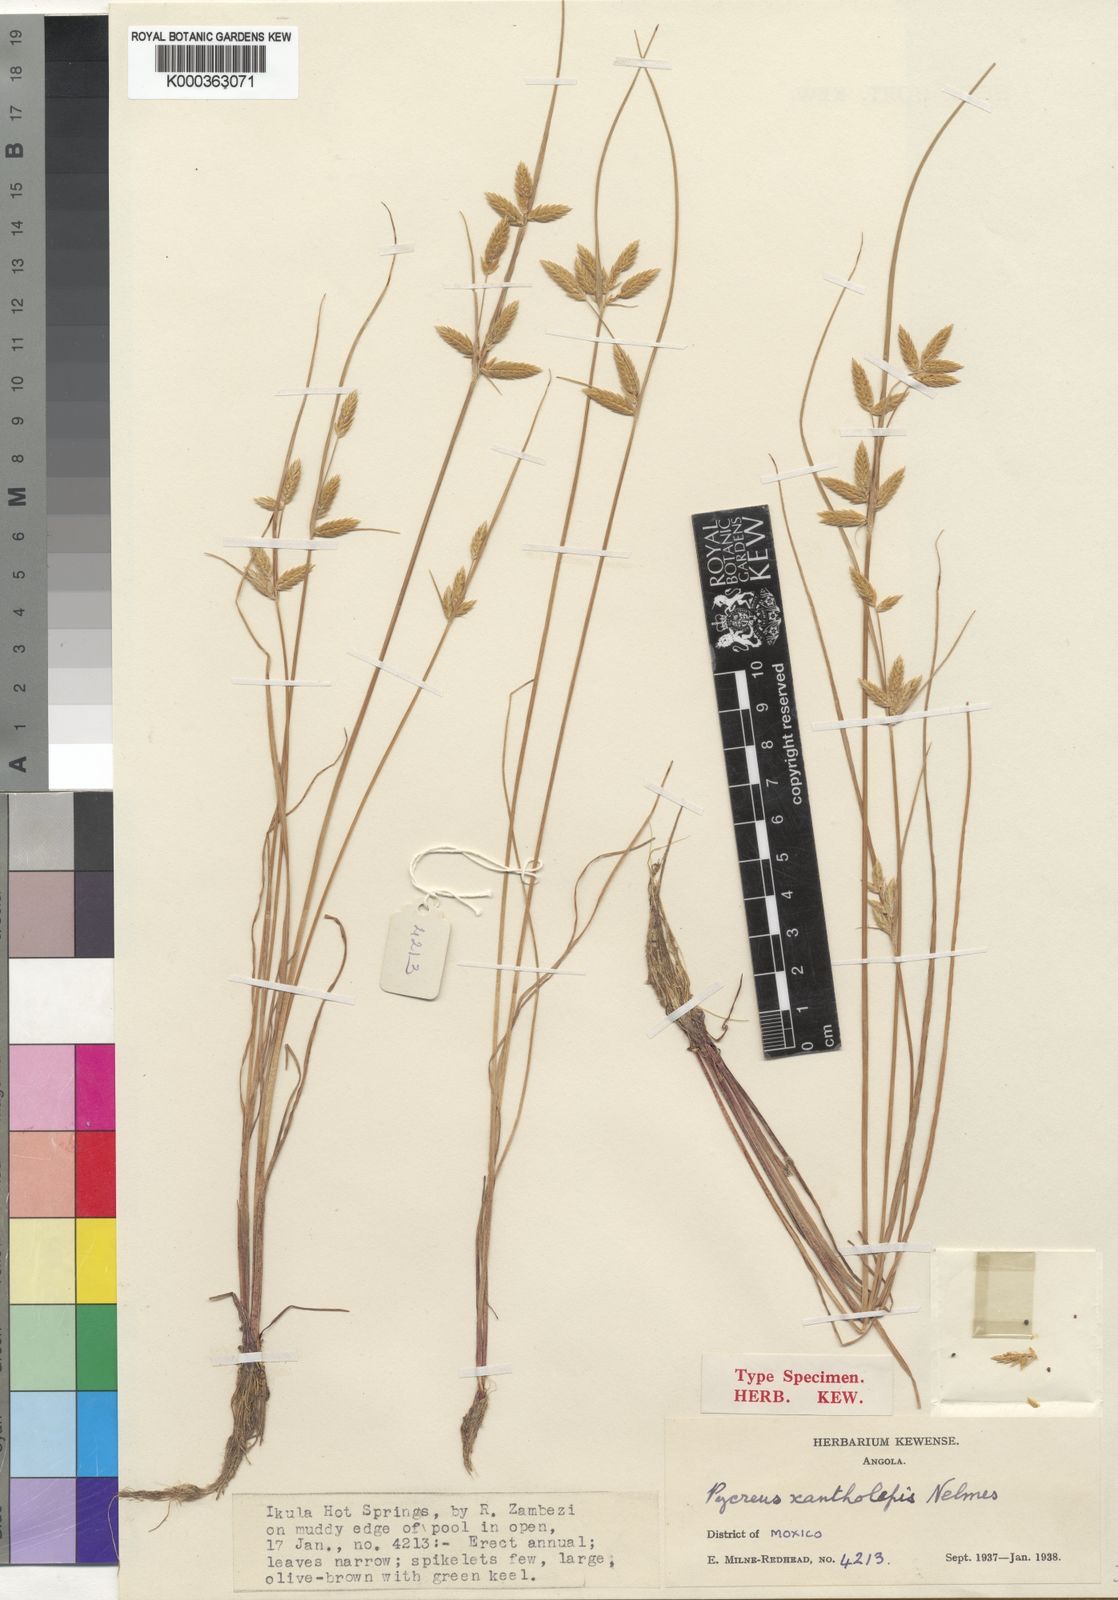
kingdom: Plantae
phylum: Tracheophyta
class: Liliopsida
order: Poales
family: Cyperaceae
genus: Cyperus
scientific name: Cyperus xantholepis
